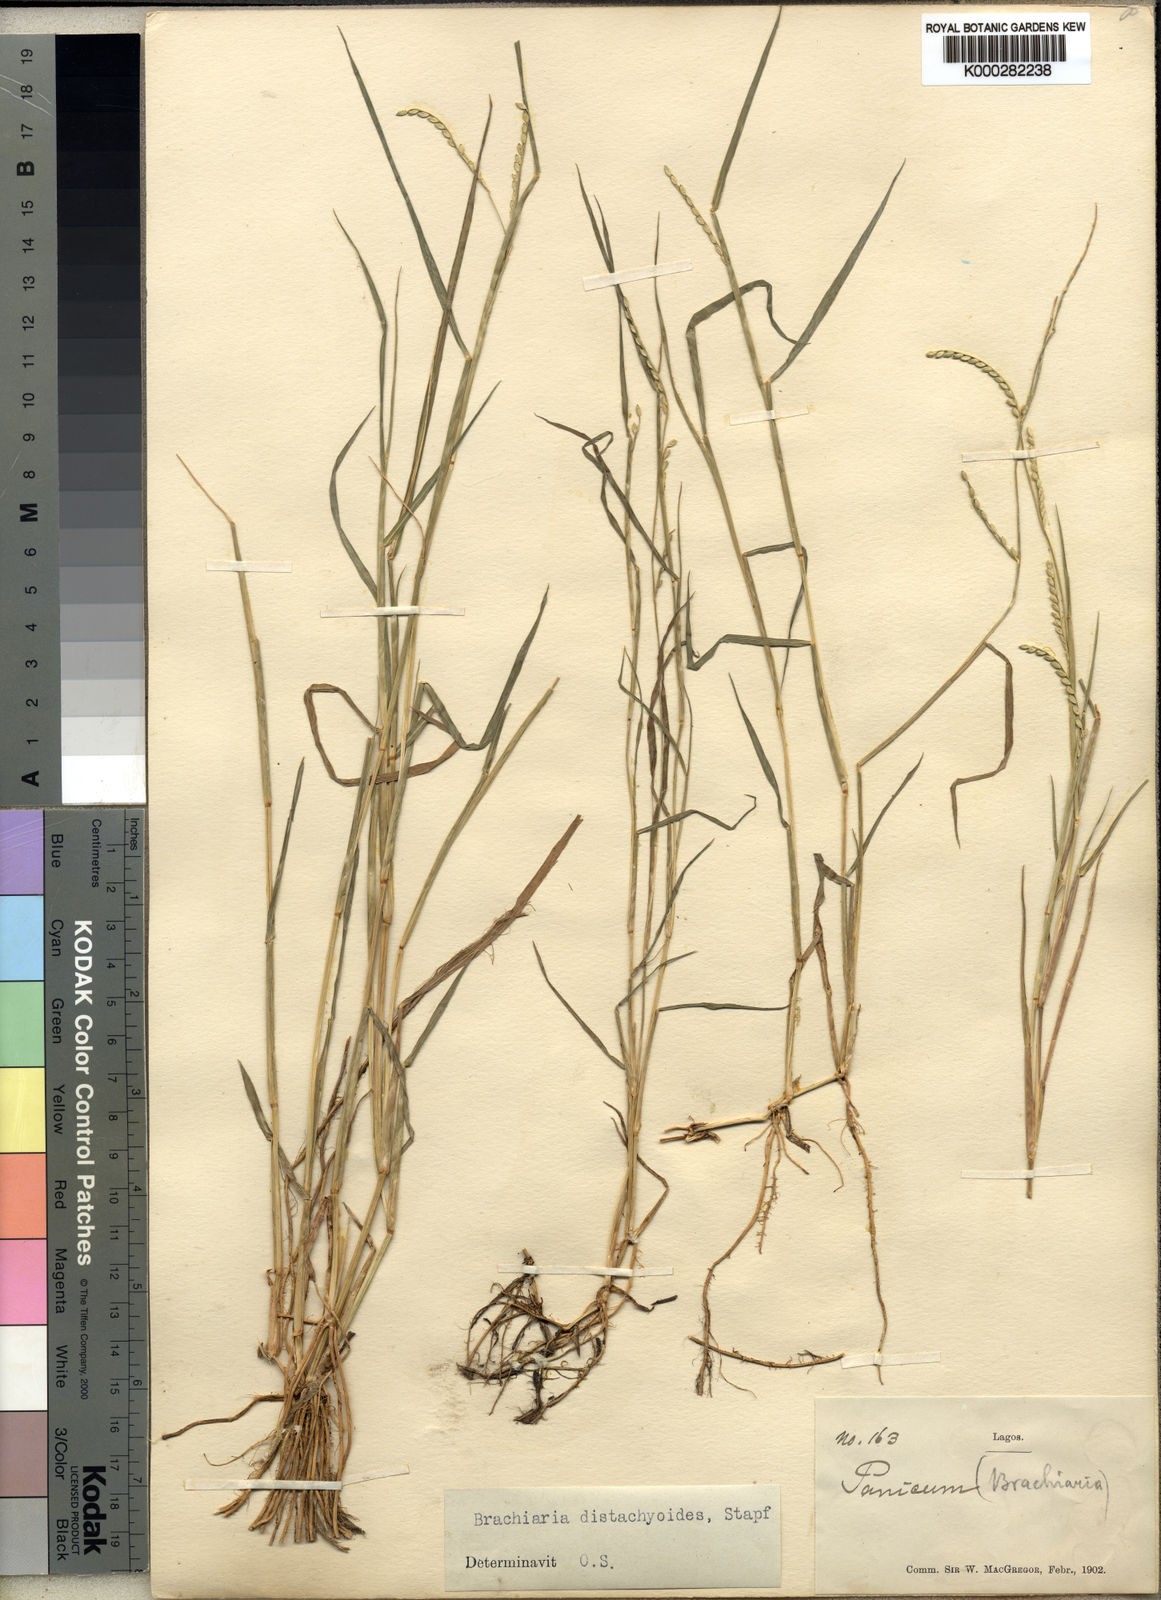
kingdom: Plantae
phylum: Tracheophyta
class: Liliopsida
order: Poales
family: Poaceae
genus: Urochloa
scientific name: Urochloa distachyoides
